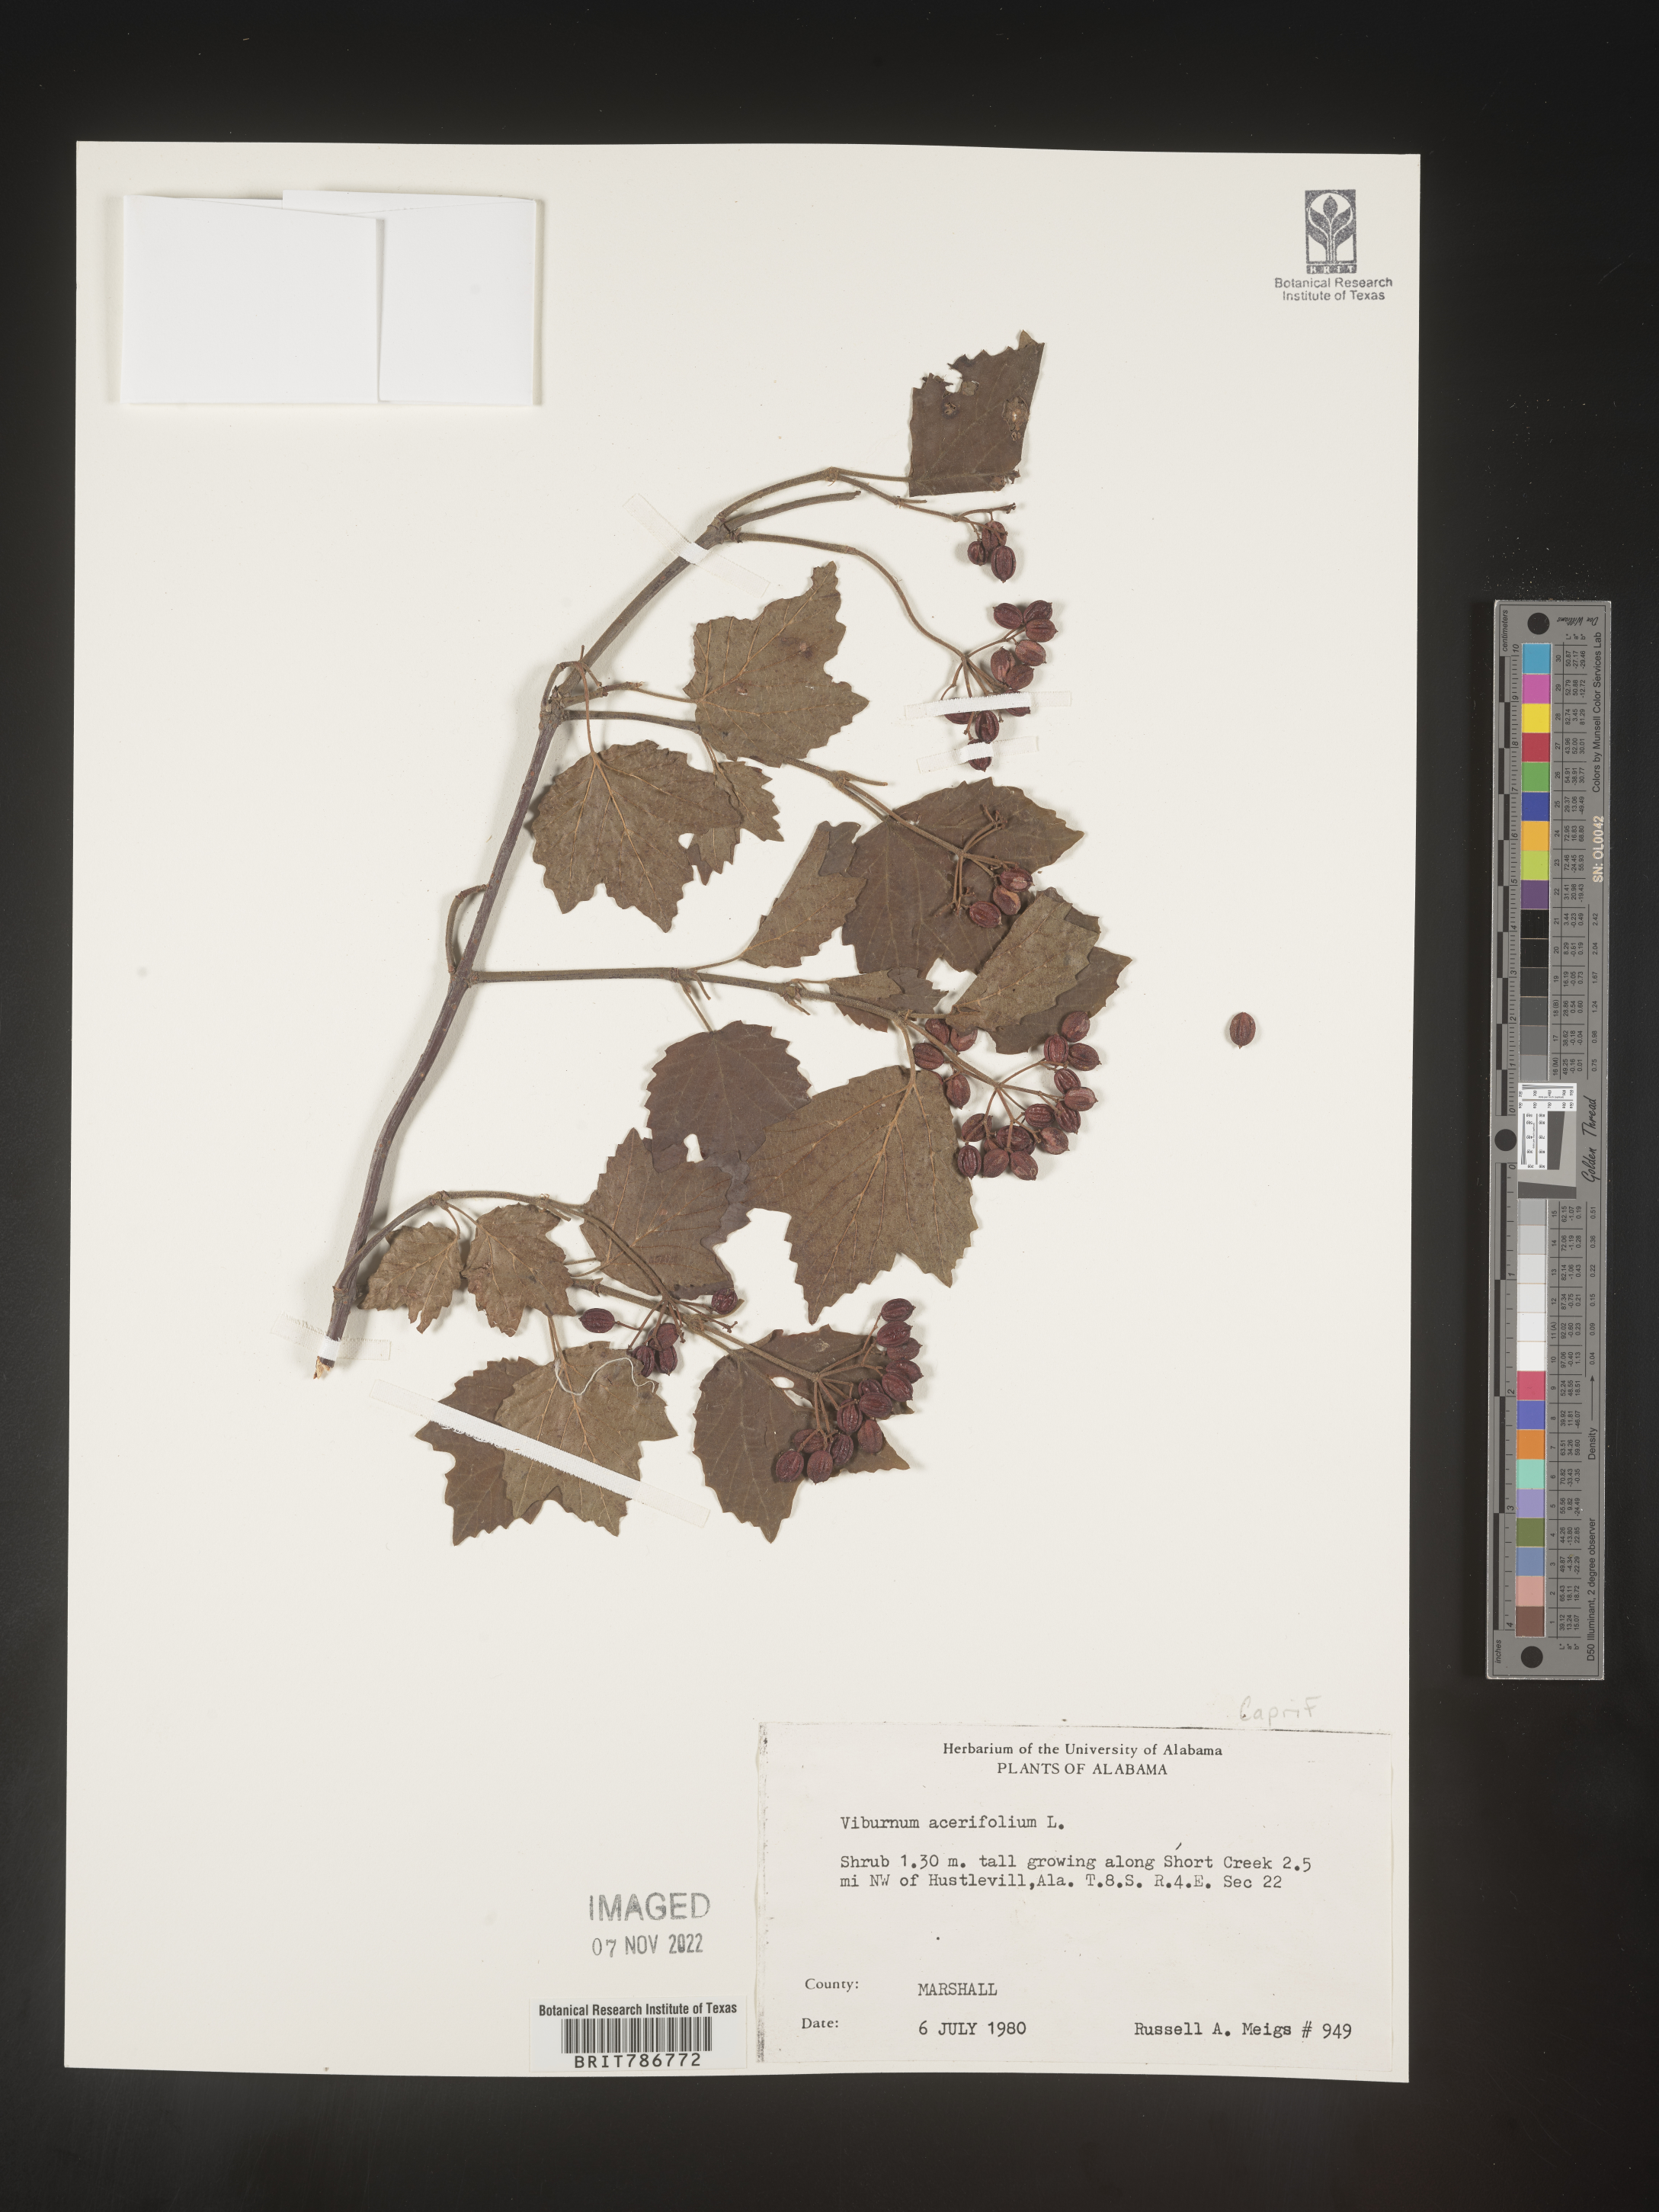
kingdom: Plantae
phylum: Tracheophyta
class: Magnoliopsida
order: Dipsacales
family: Viburnaceae
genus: Viburnum
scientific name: Viburnum acerifolium
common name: Dockmackie
